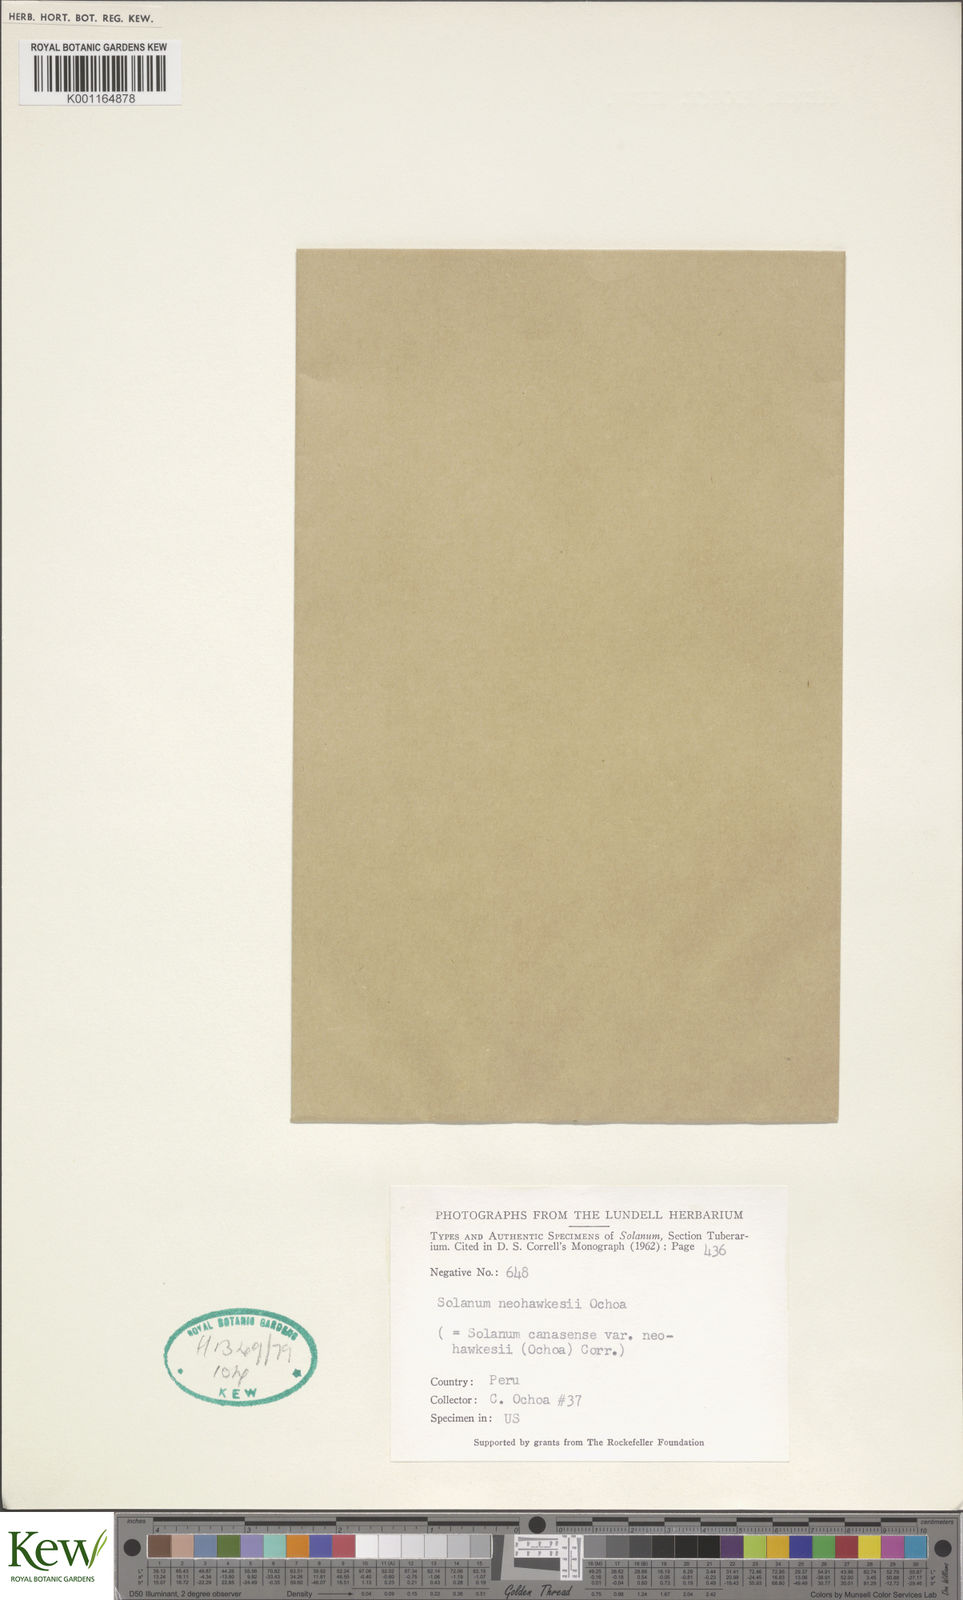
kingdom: Plantae
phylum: Tracheophyta
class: Magnoliopsida
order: Solanales
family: Solanaceae
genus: Solanum
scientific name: Solanum candolleanum
